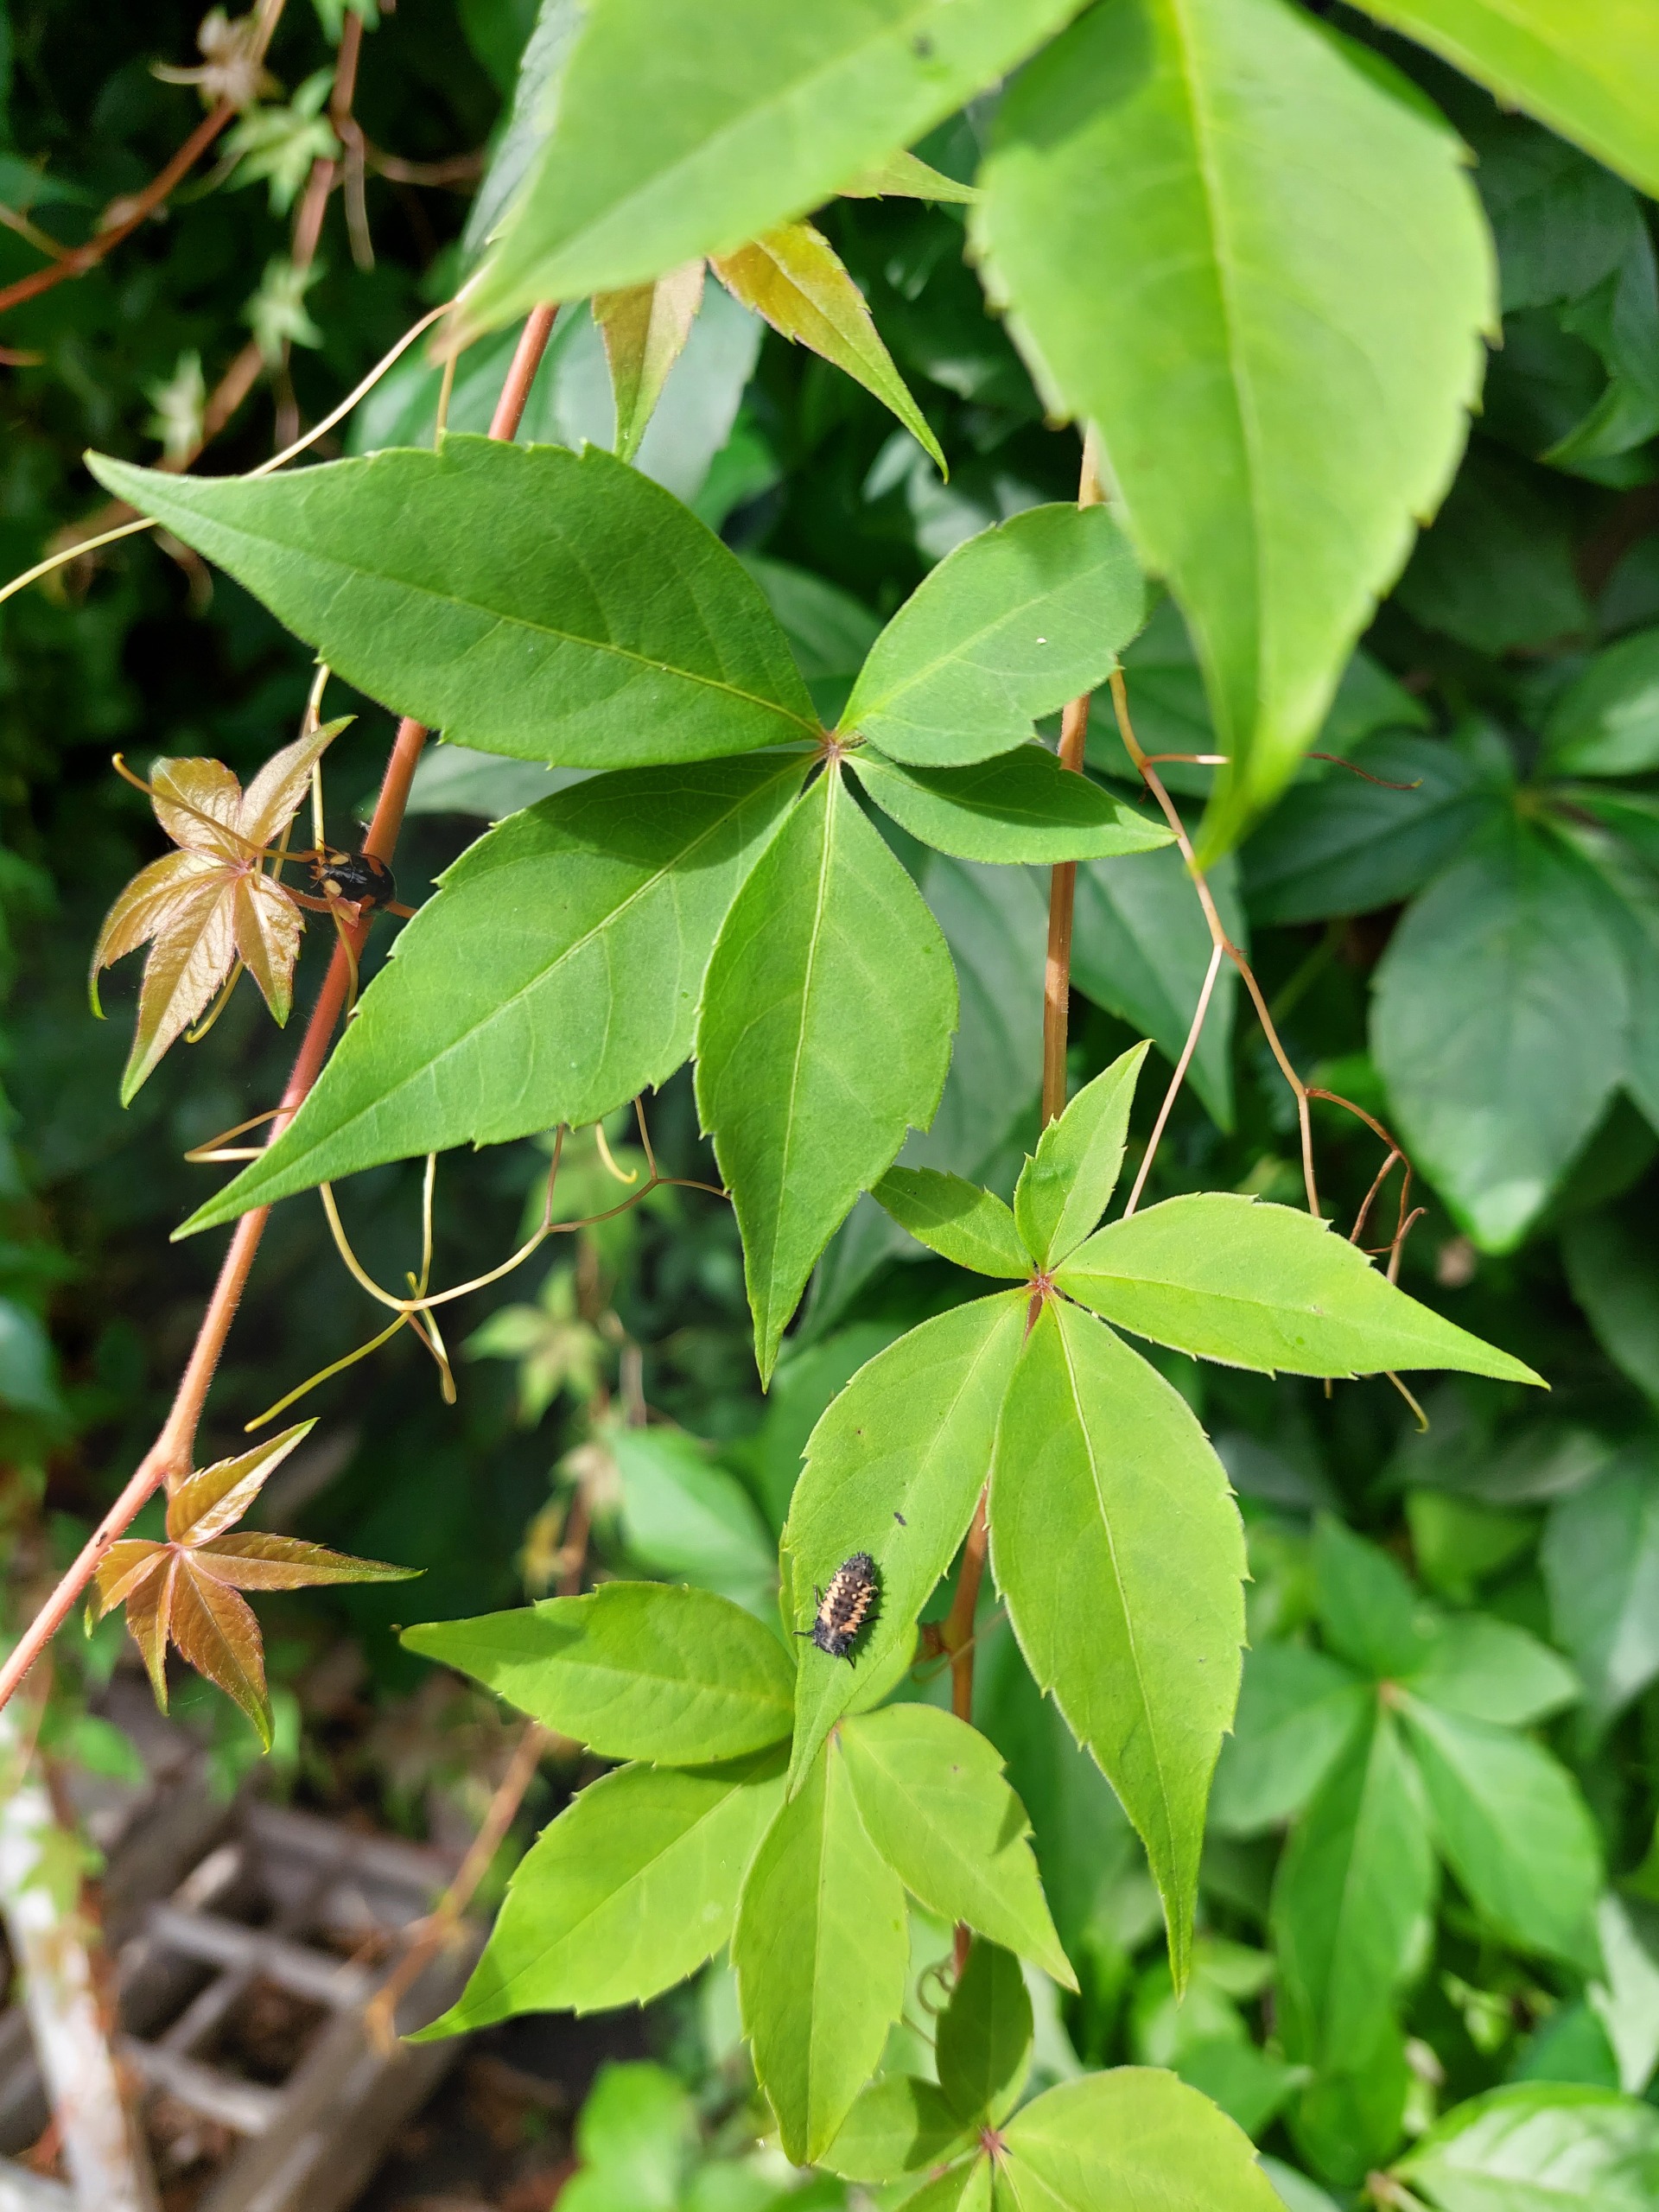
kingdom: Animalia
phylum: Arthropoda
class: Insecta
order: Coleoptera
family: Coccinellidae
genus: Harmonia
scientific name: Harmonia axyridis
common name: Harlekinmariehøne
